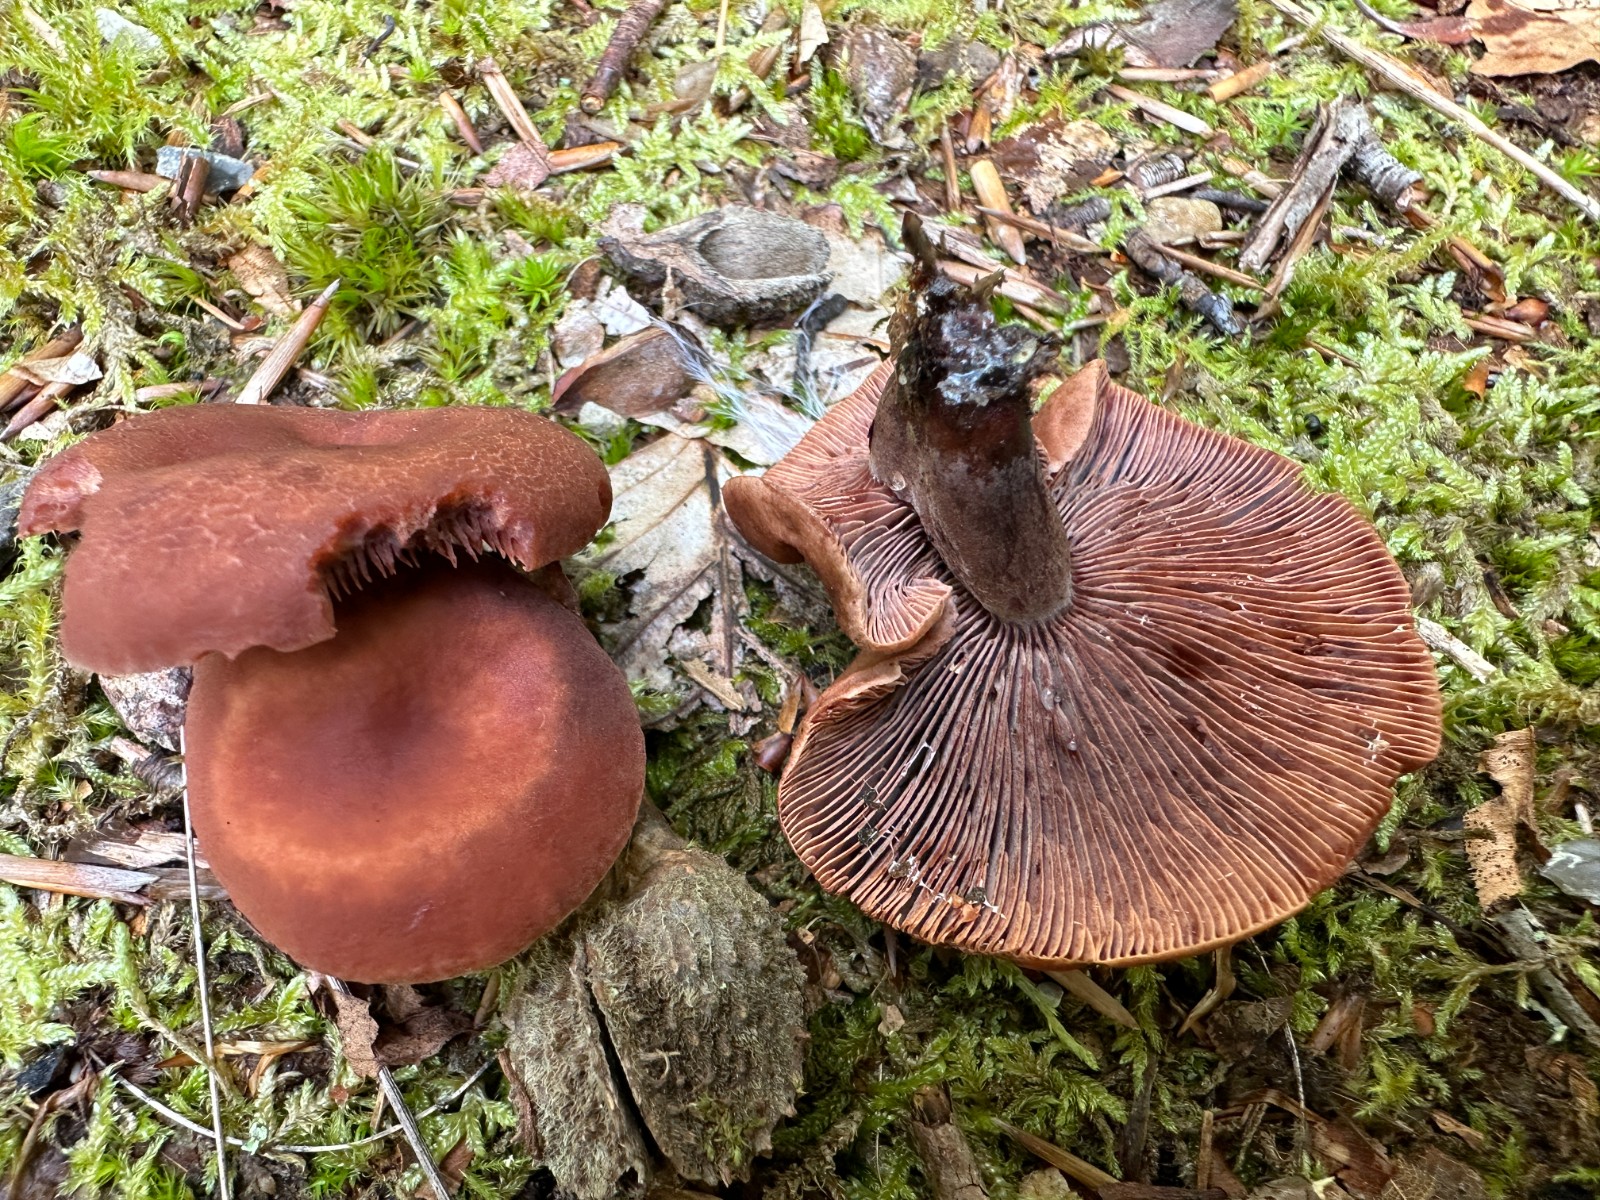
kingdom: Fungi
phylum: Basidiomycota
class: Agaricomycetes
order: Russulales
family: Russulaceae
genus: Lactarius
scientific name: Lactarius camphoratus
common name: kamfer-mælkehat
